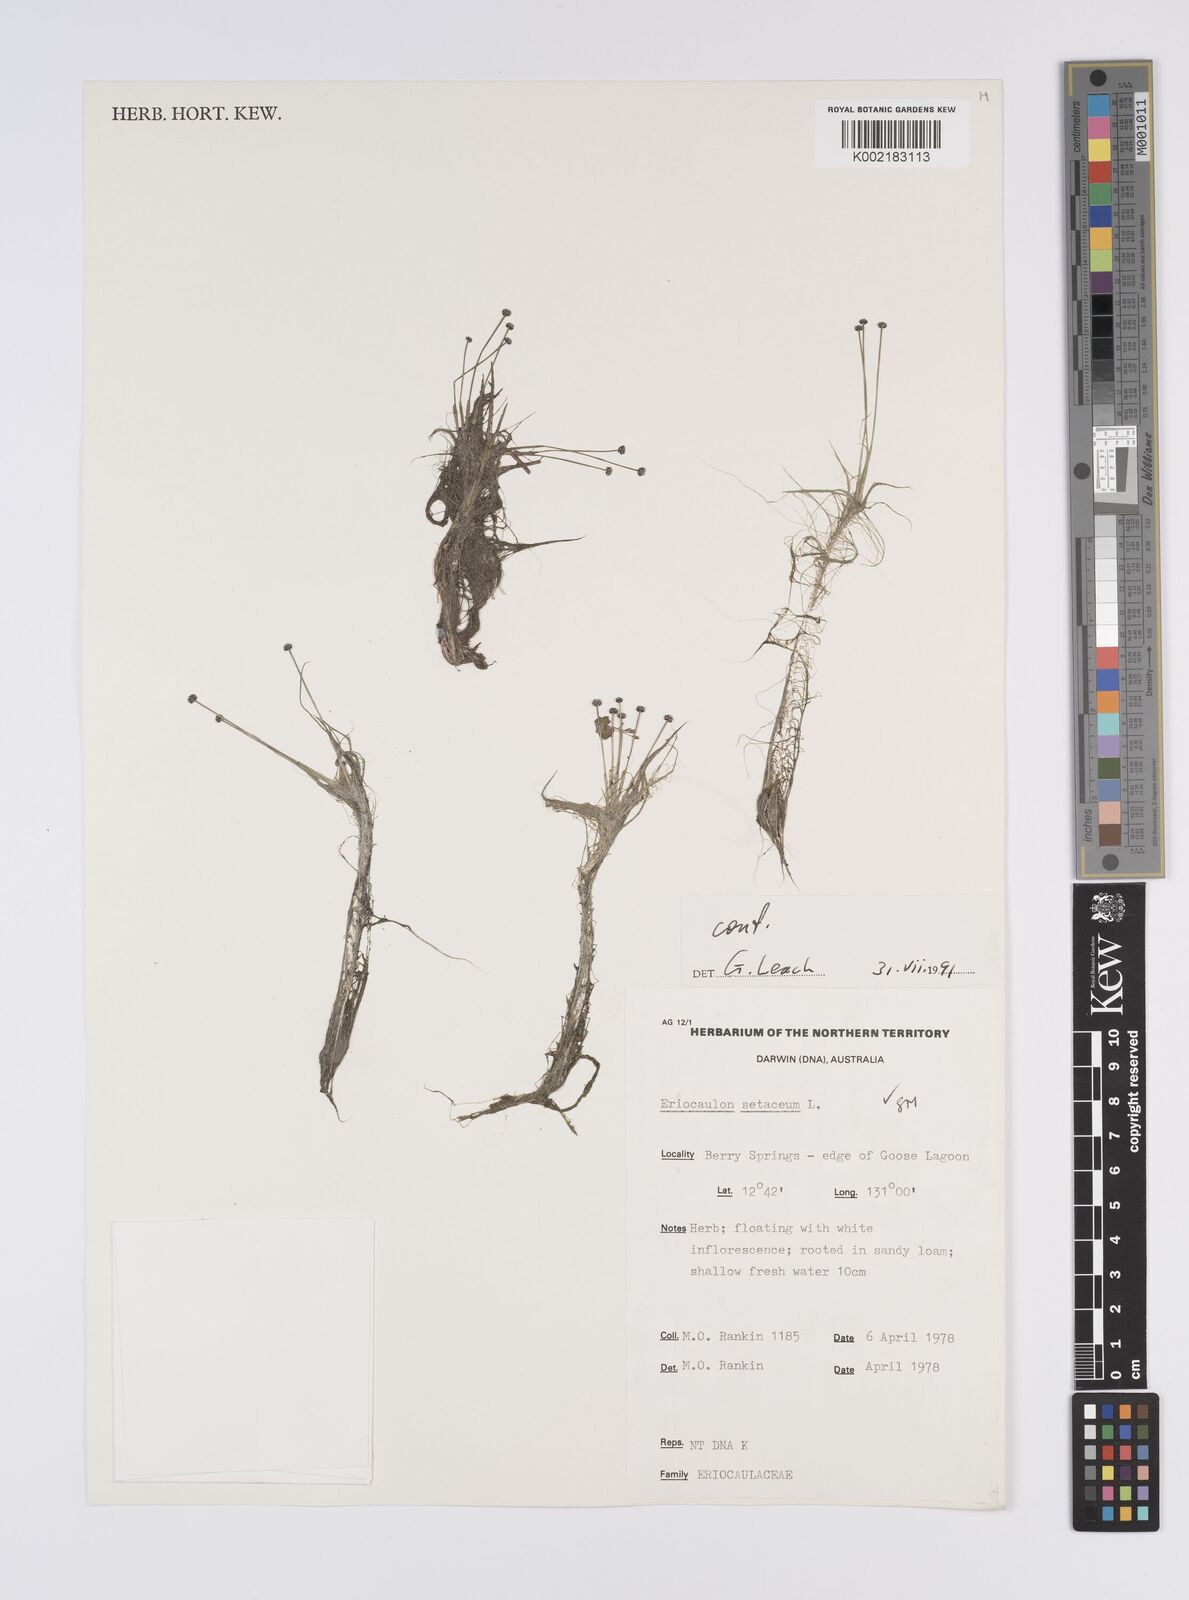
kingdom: Plantae
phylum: Tracheophyta
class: Liliopsida
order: Poales
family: Eriocaulaceae
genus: Eriocaulon
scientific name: Eriocaulon setaceum
